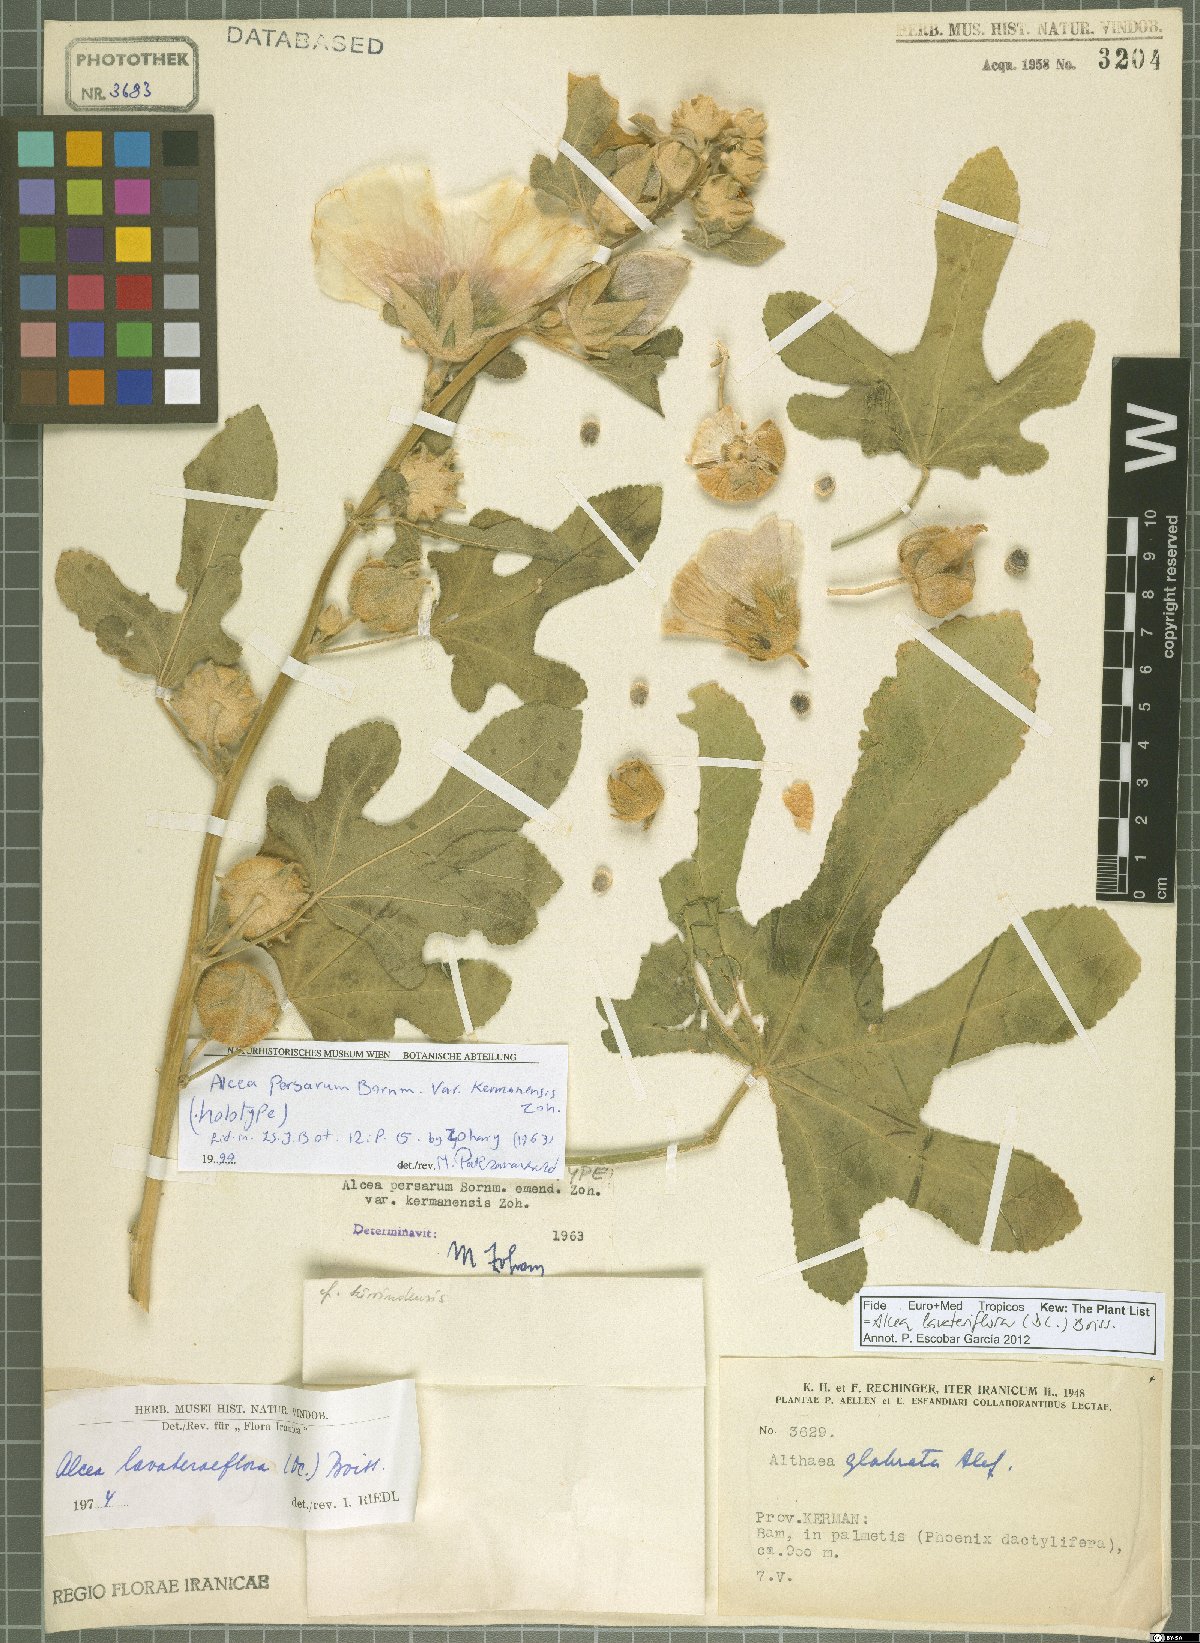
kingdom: Plantae
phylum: Tracheophyta
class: Magnoliopsida
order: Malvales
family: Malvaceae
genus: Alcea
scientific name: Alcea lavateriflora
